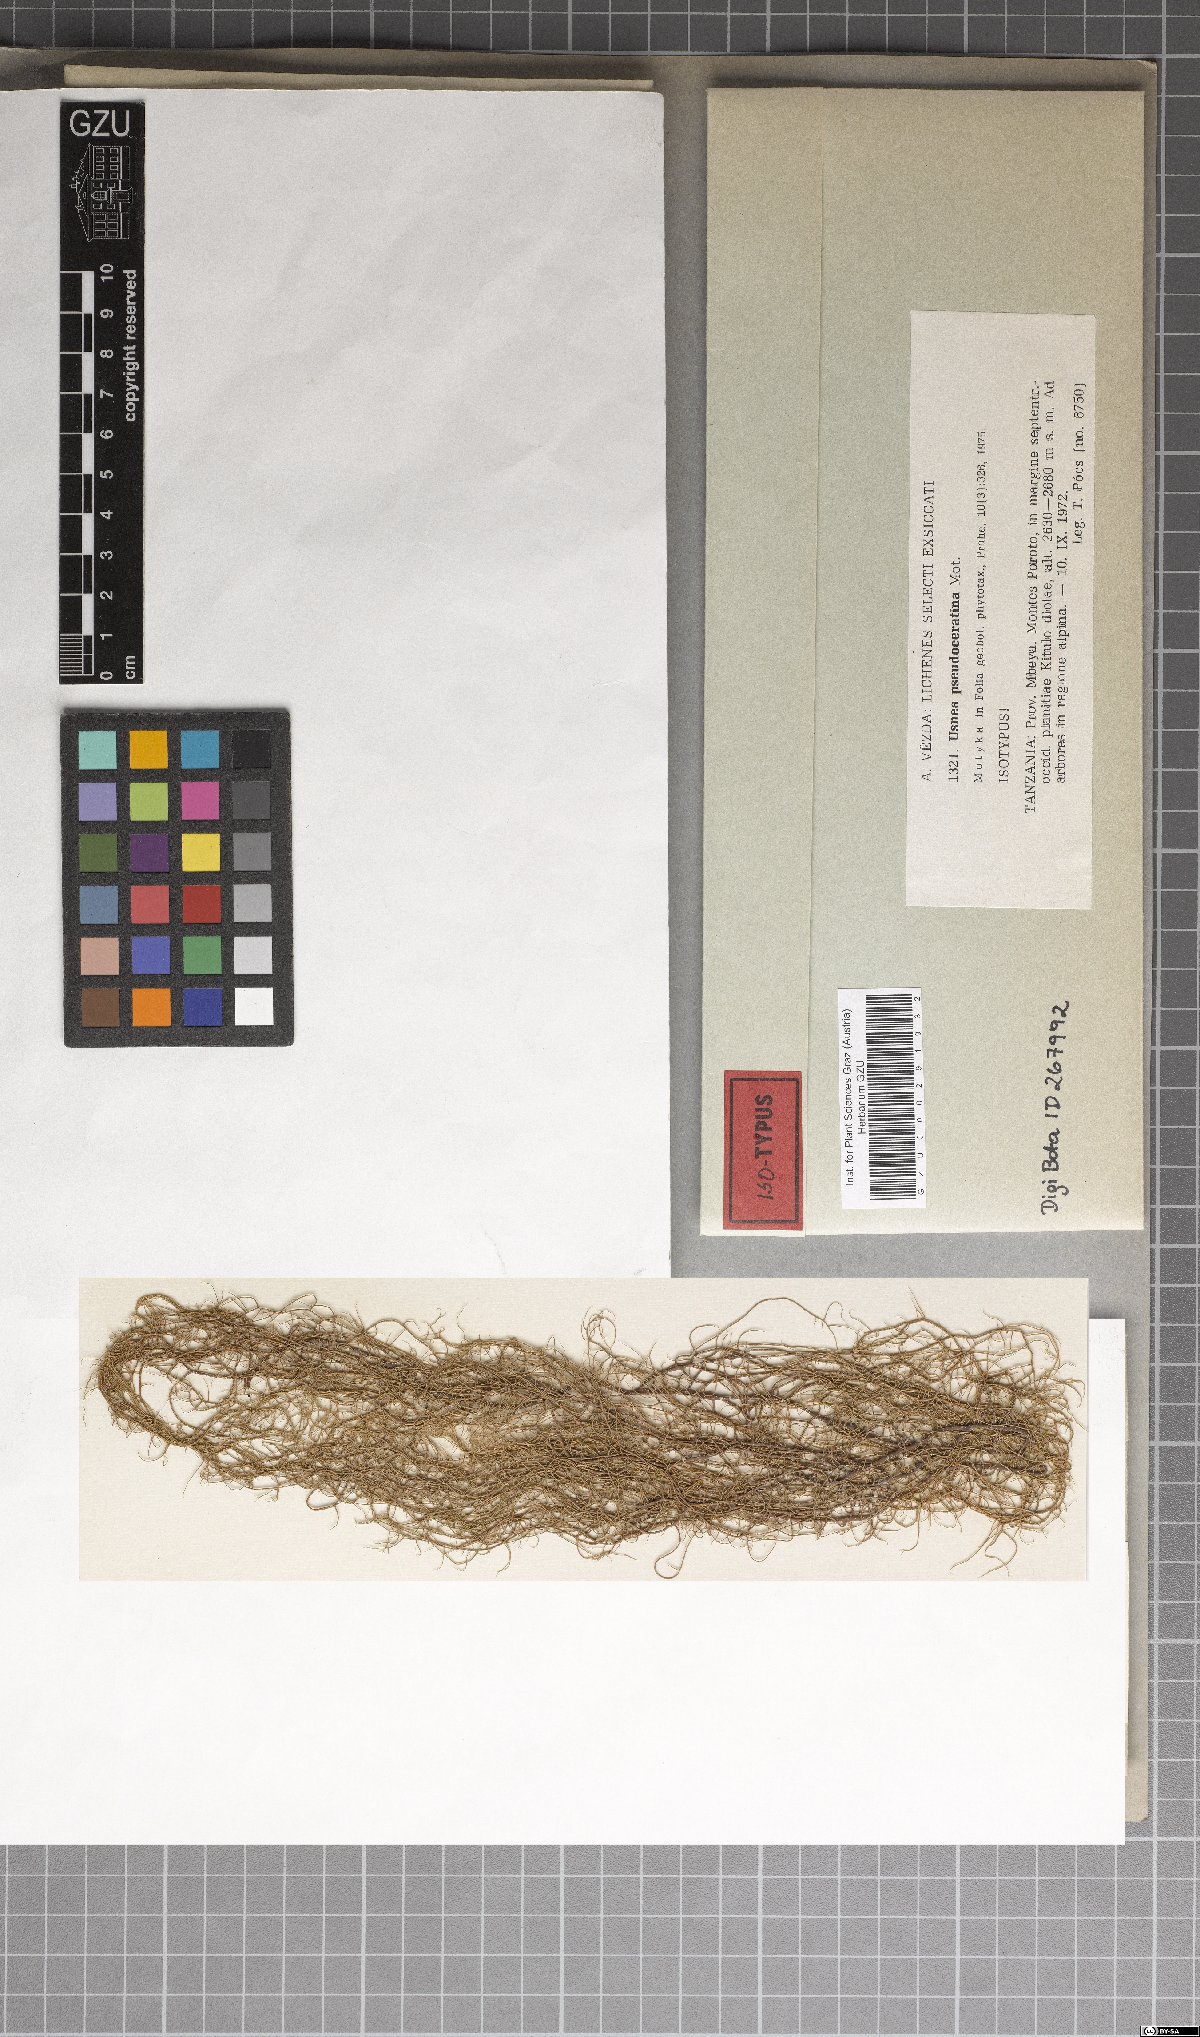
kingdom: Fungi
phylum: Ascomycota
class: Lecanoromycetes
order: Lecanorales
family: Parmeliaceae
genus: Usnea
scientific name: Usnea
